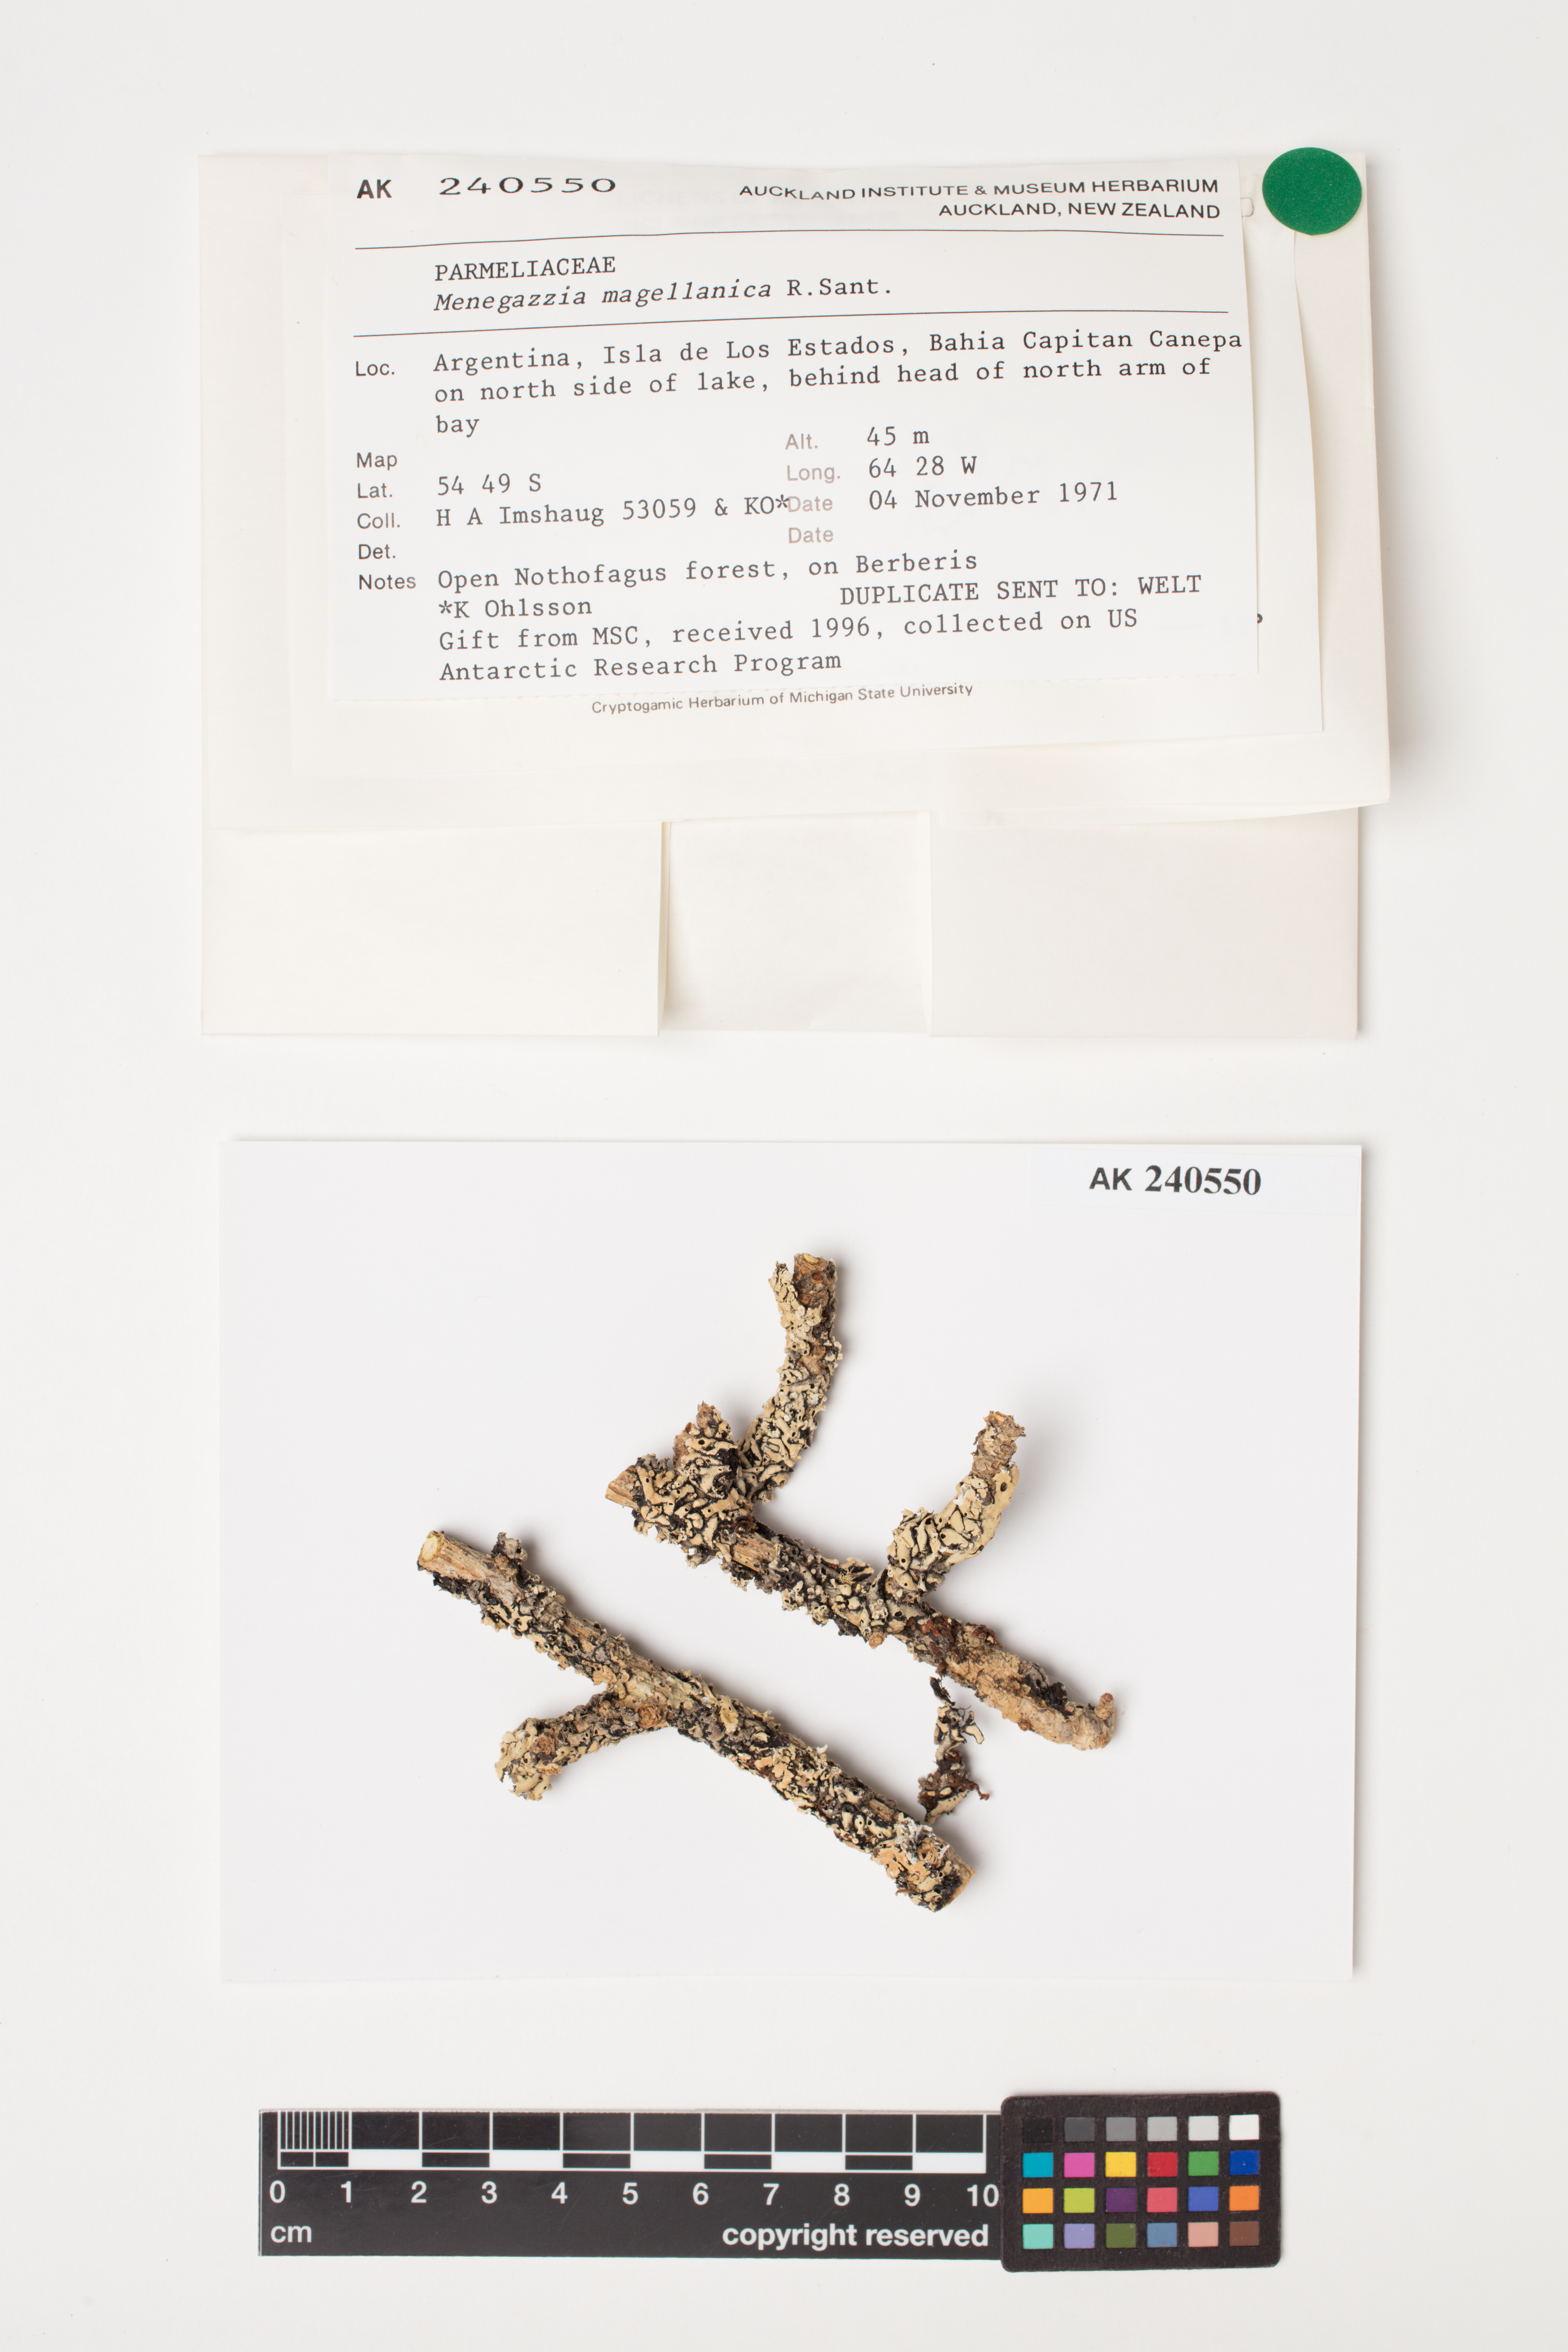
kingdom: Fungi
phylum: Ascomycota
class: Lecanoromycetes
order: Lecanorales
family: Parmeliaceae
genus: Menegazzia
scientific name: Menegazzia subpertusa
